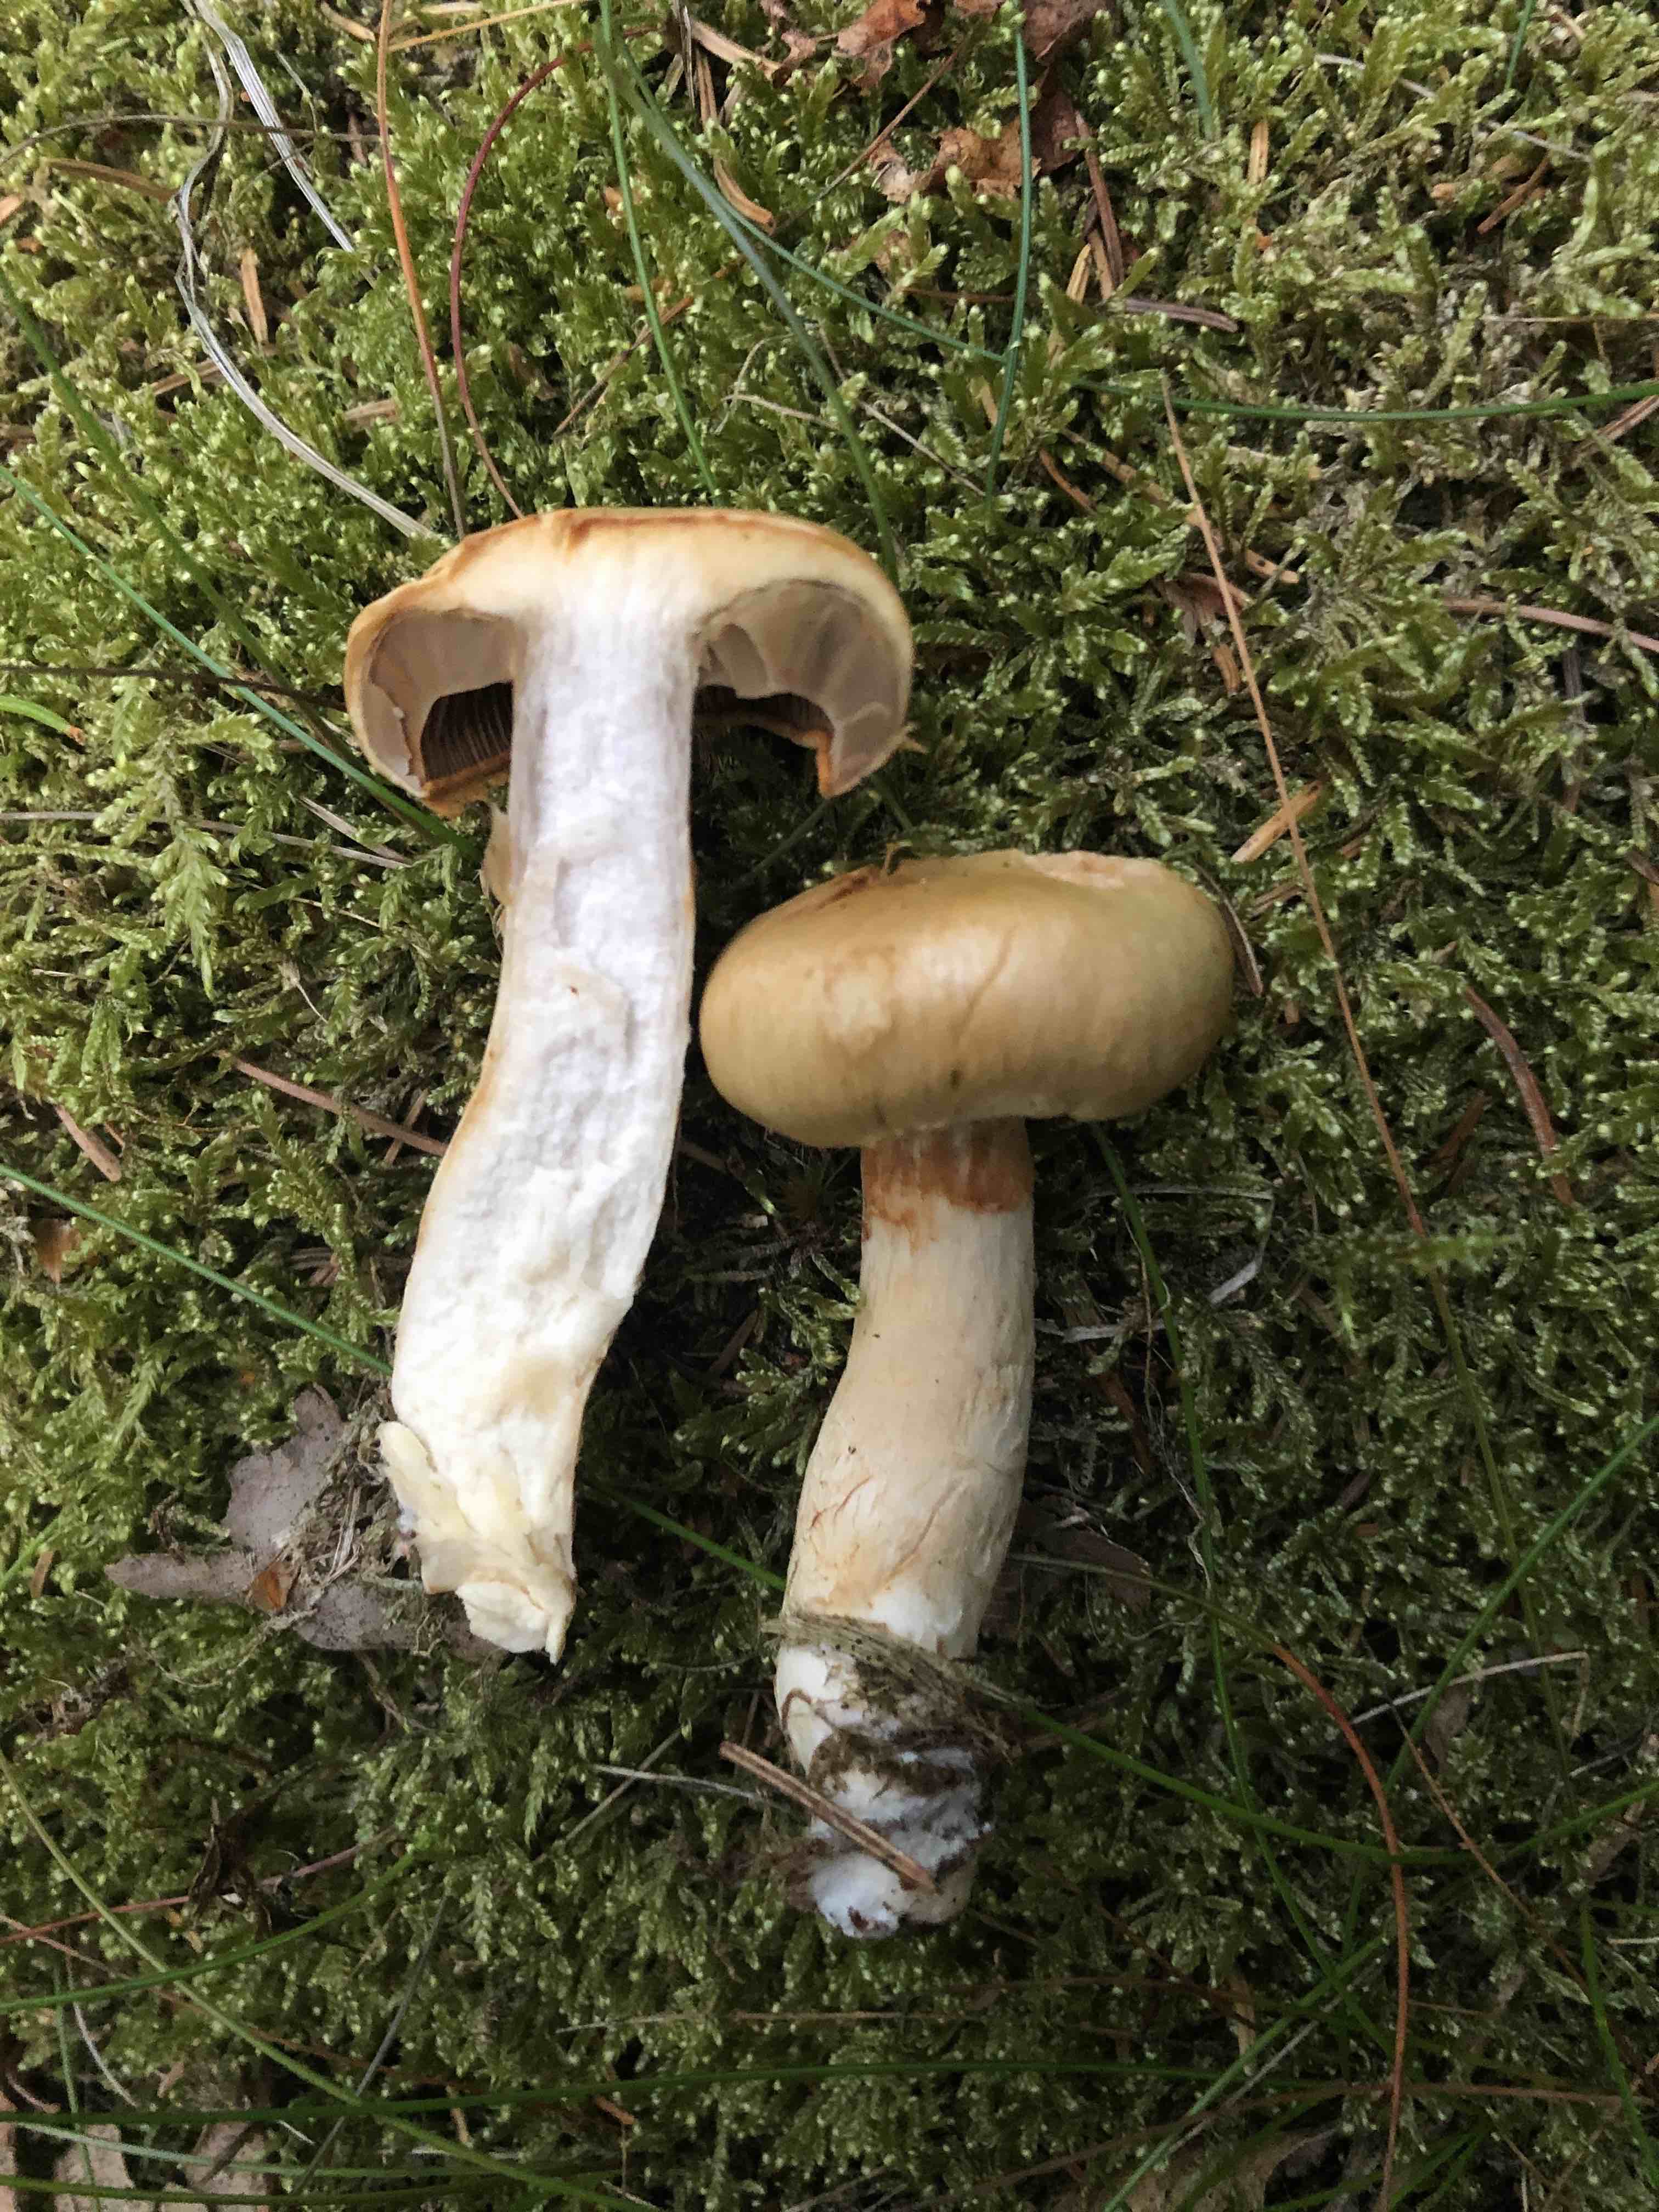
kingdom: Fungi
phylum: Basidiomycota
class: Agaricomycetes
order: Agaricales
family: Cortinariaceae
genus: Cortinarius
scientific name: Cortinarius subtortus
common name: olivengul slørhat
